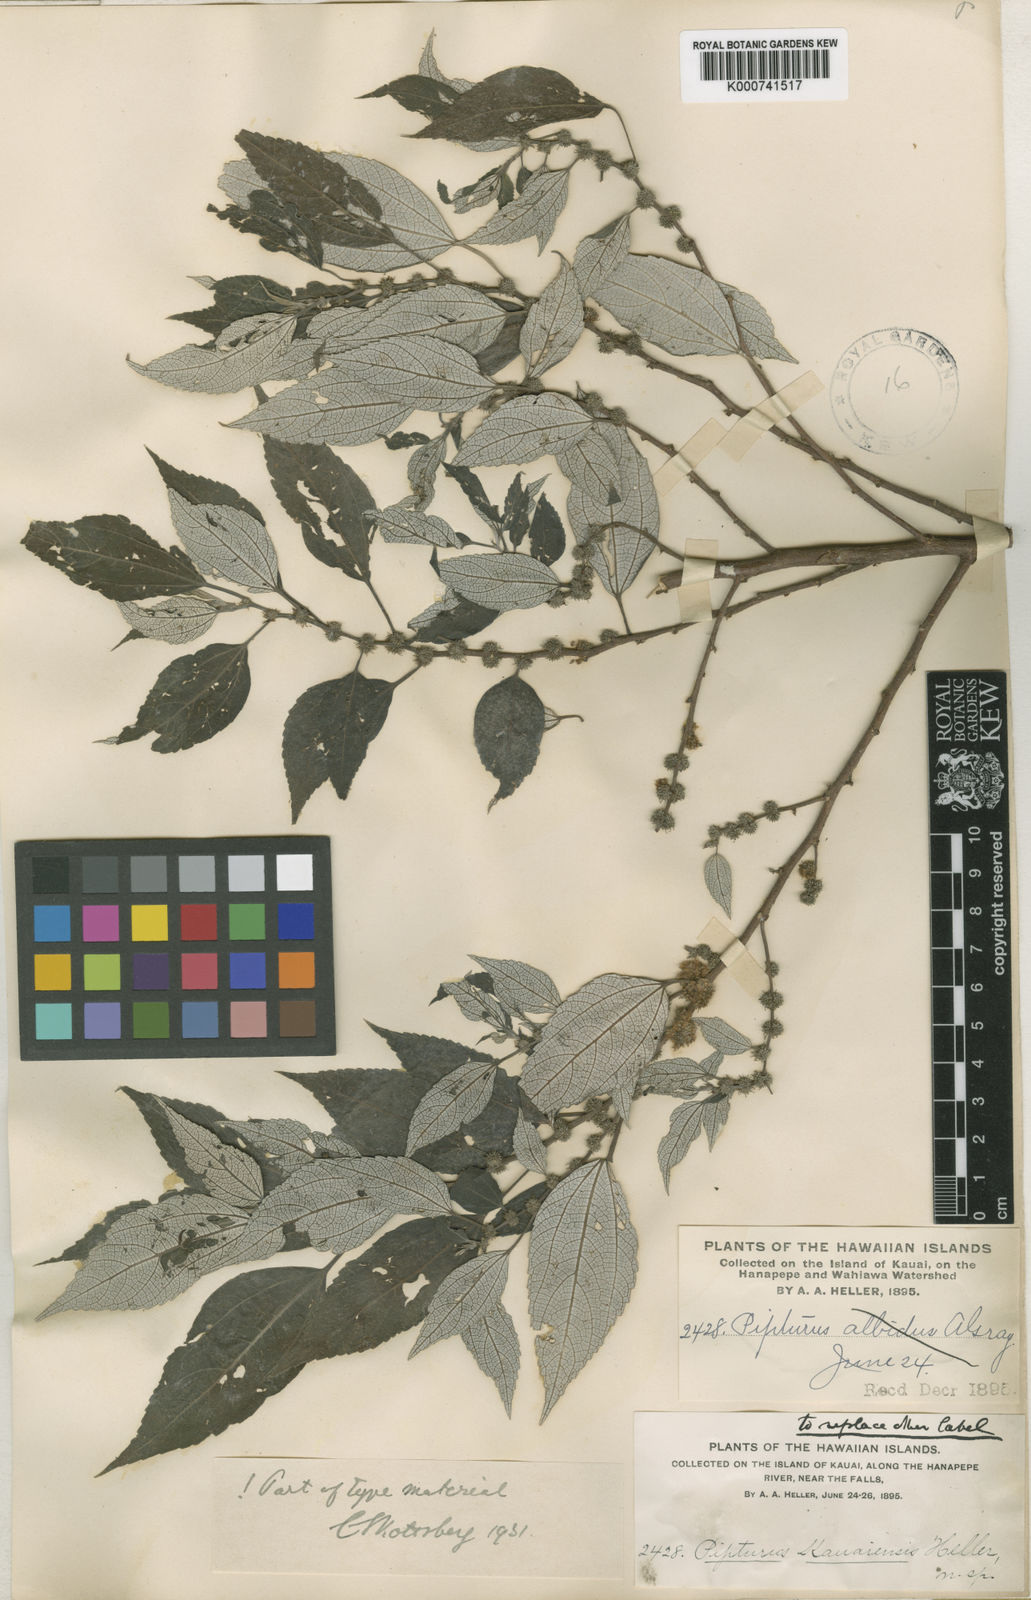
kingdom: Plantae
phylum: Tracheophyta
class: Magnoliopsida
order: Rosales
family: Urticaceae
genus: Pipturus
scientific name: Pipturus kauaiensis
